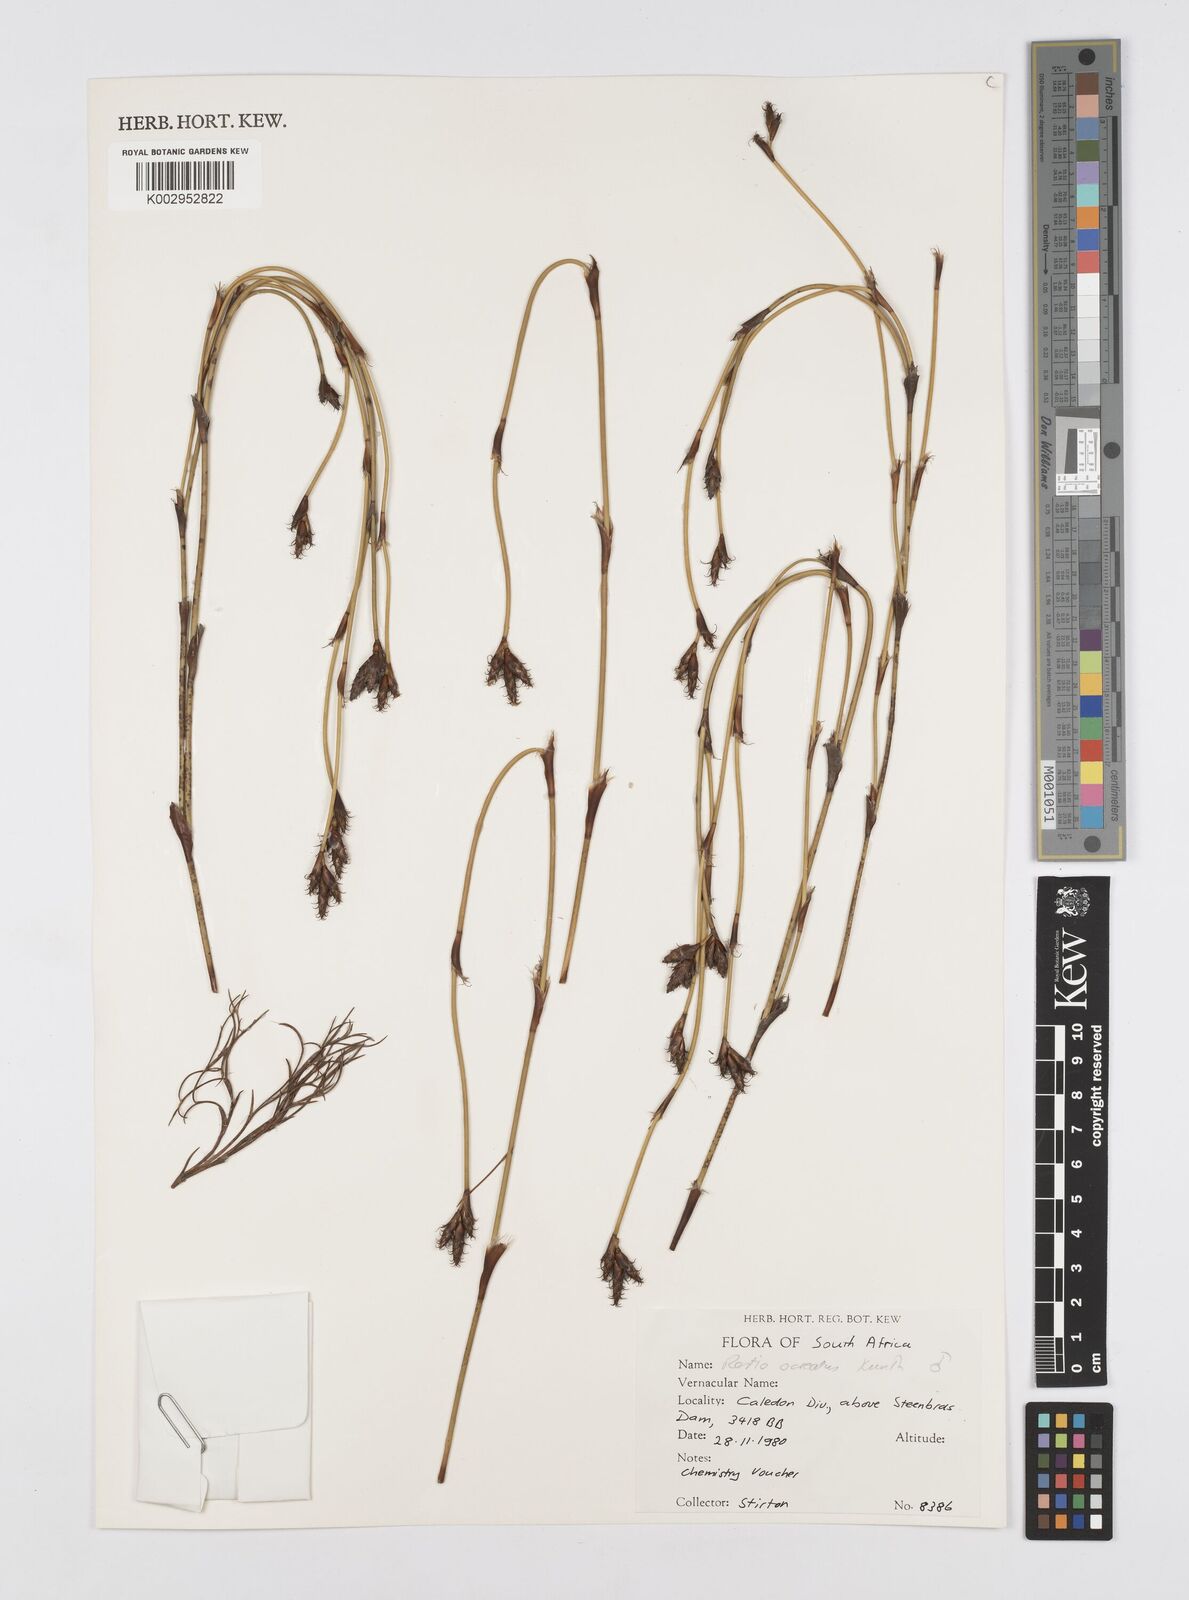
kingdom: Plantae
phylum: Tracheophyta
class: Liliopsida
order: Poales
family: Restionaceae
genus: Restio
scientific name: Restio ocreatus
